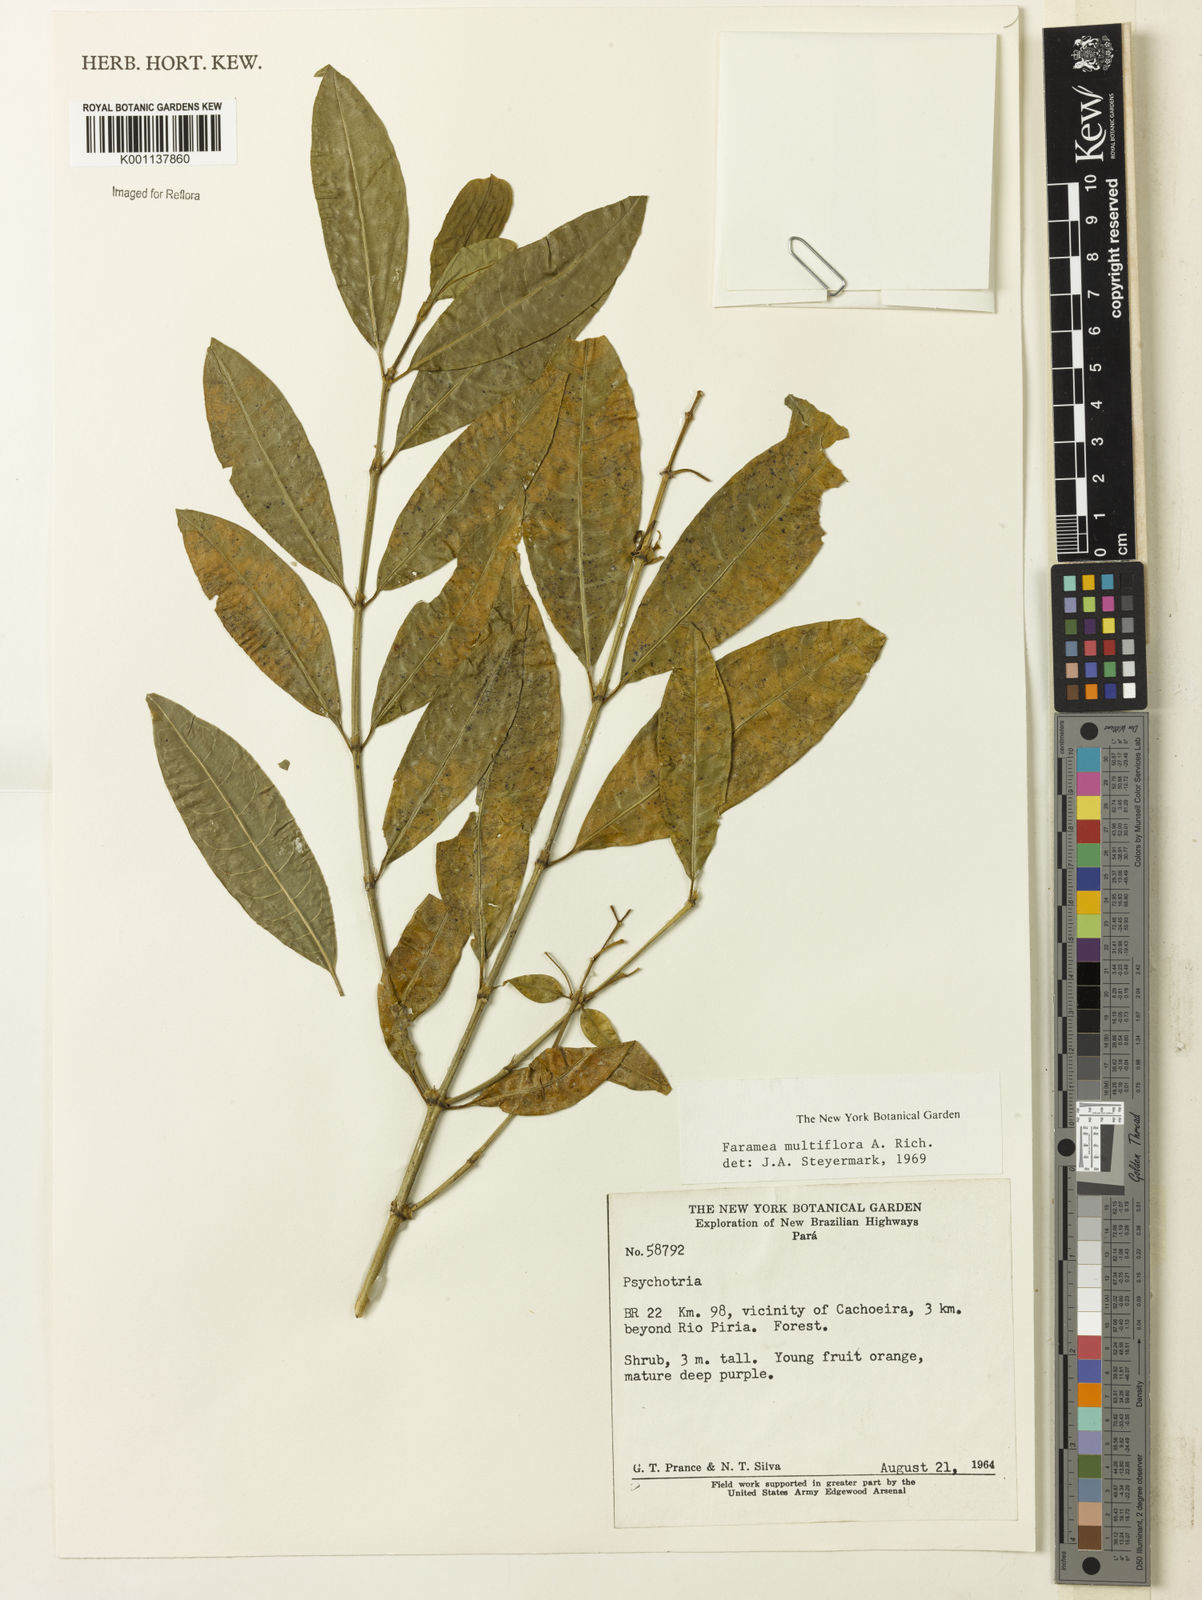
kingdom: Plantae
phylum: Tracheophyta
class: Magnoliopsida
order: Gentianales
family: Rubiaceae
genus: Faramea
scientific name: Faramea multiflora
